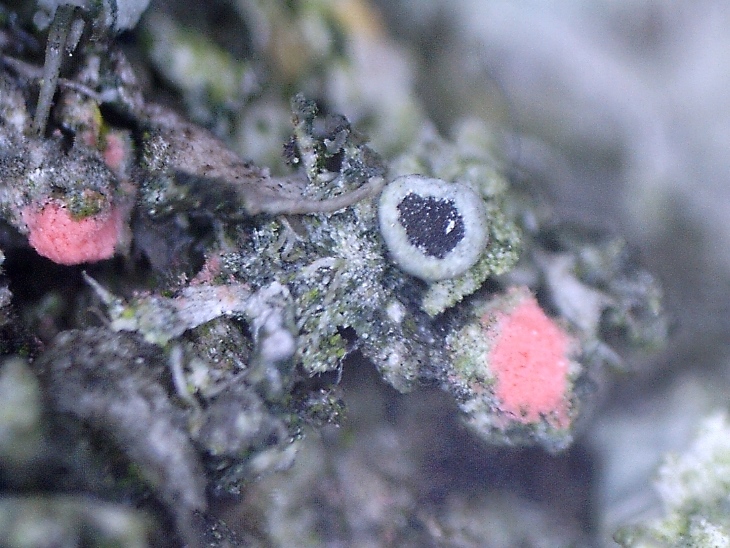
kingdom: Fungi
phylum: Ascomycota
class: Sordariomycetes
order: Hypocreales
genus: Illosporiopsis
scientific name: Illosporiopsis christiansenii
